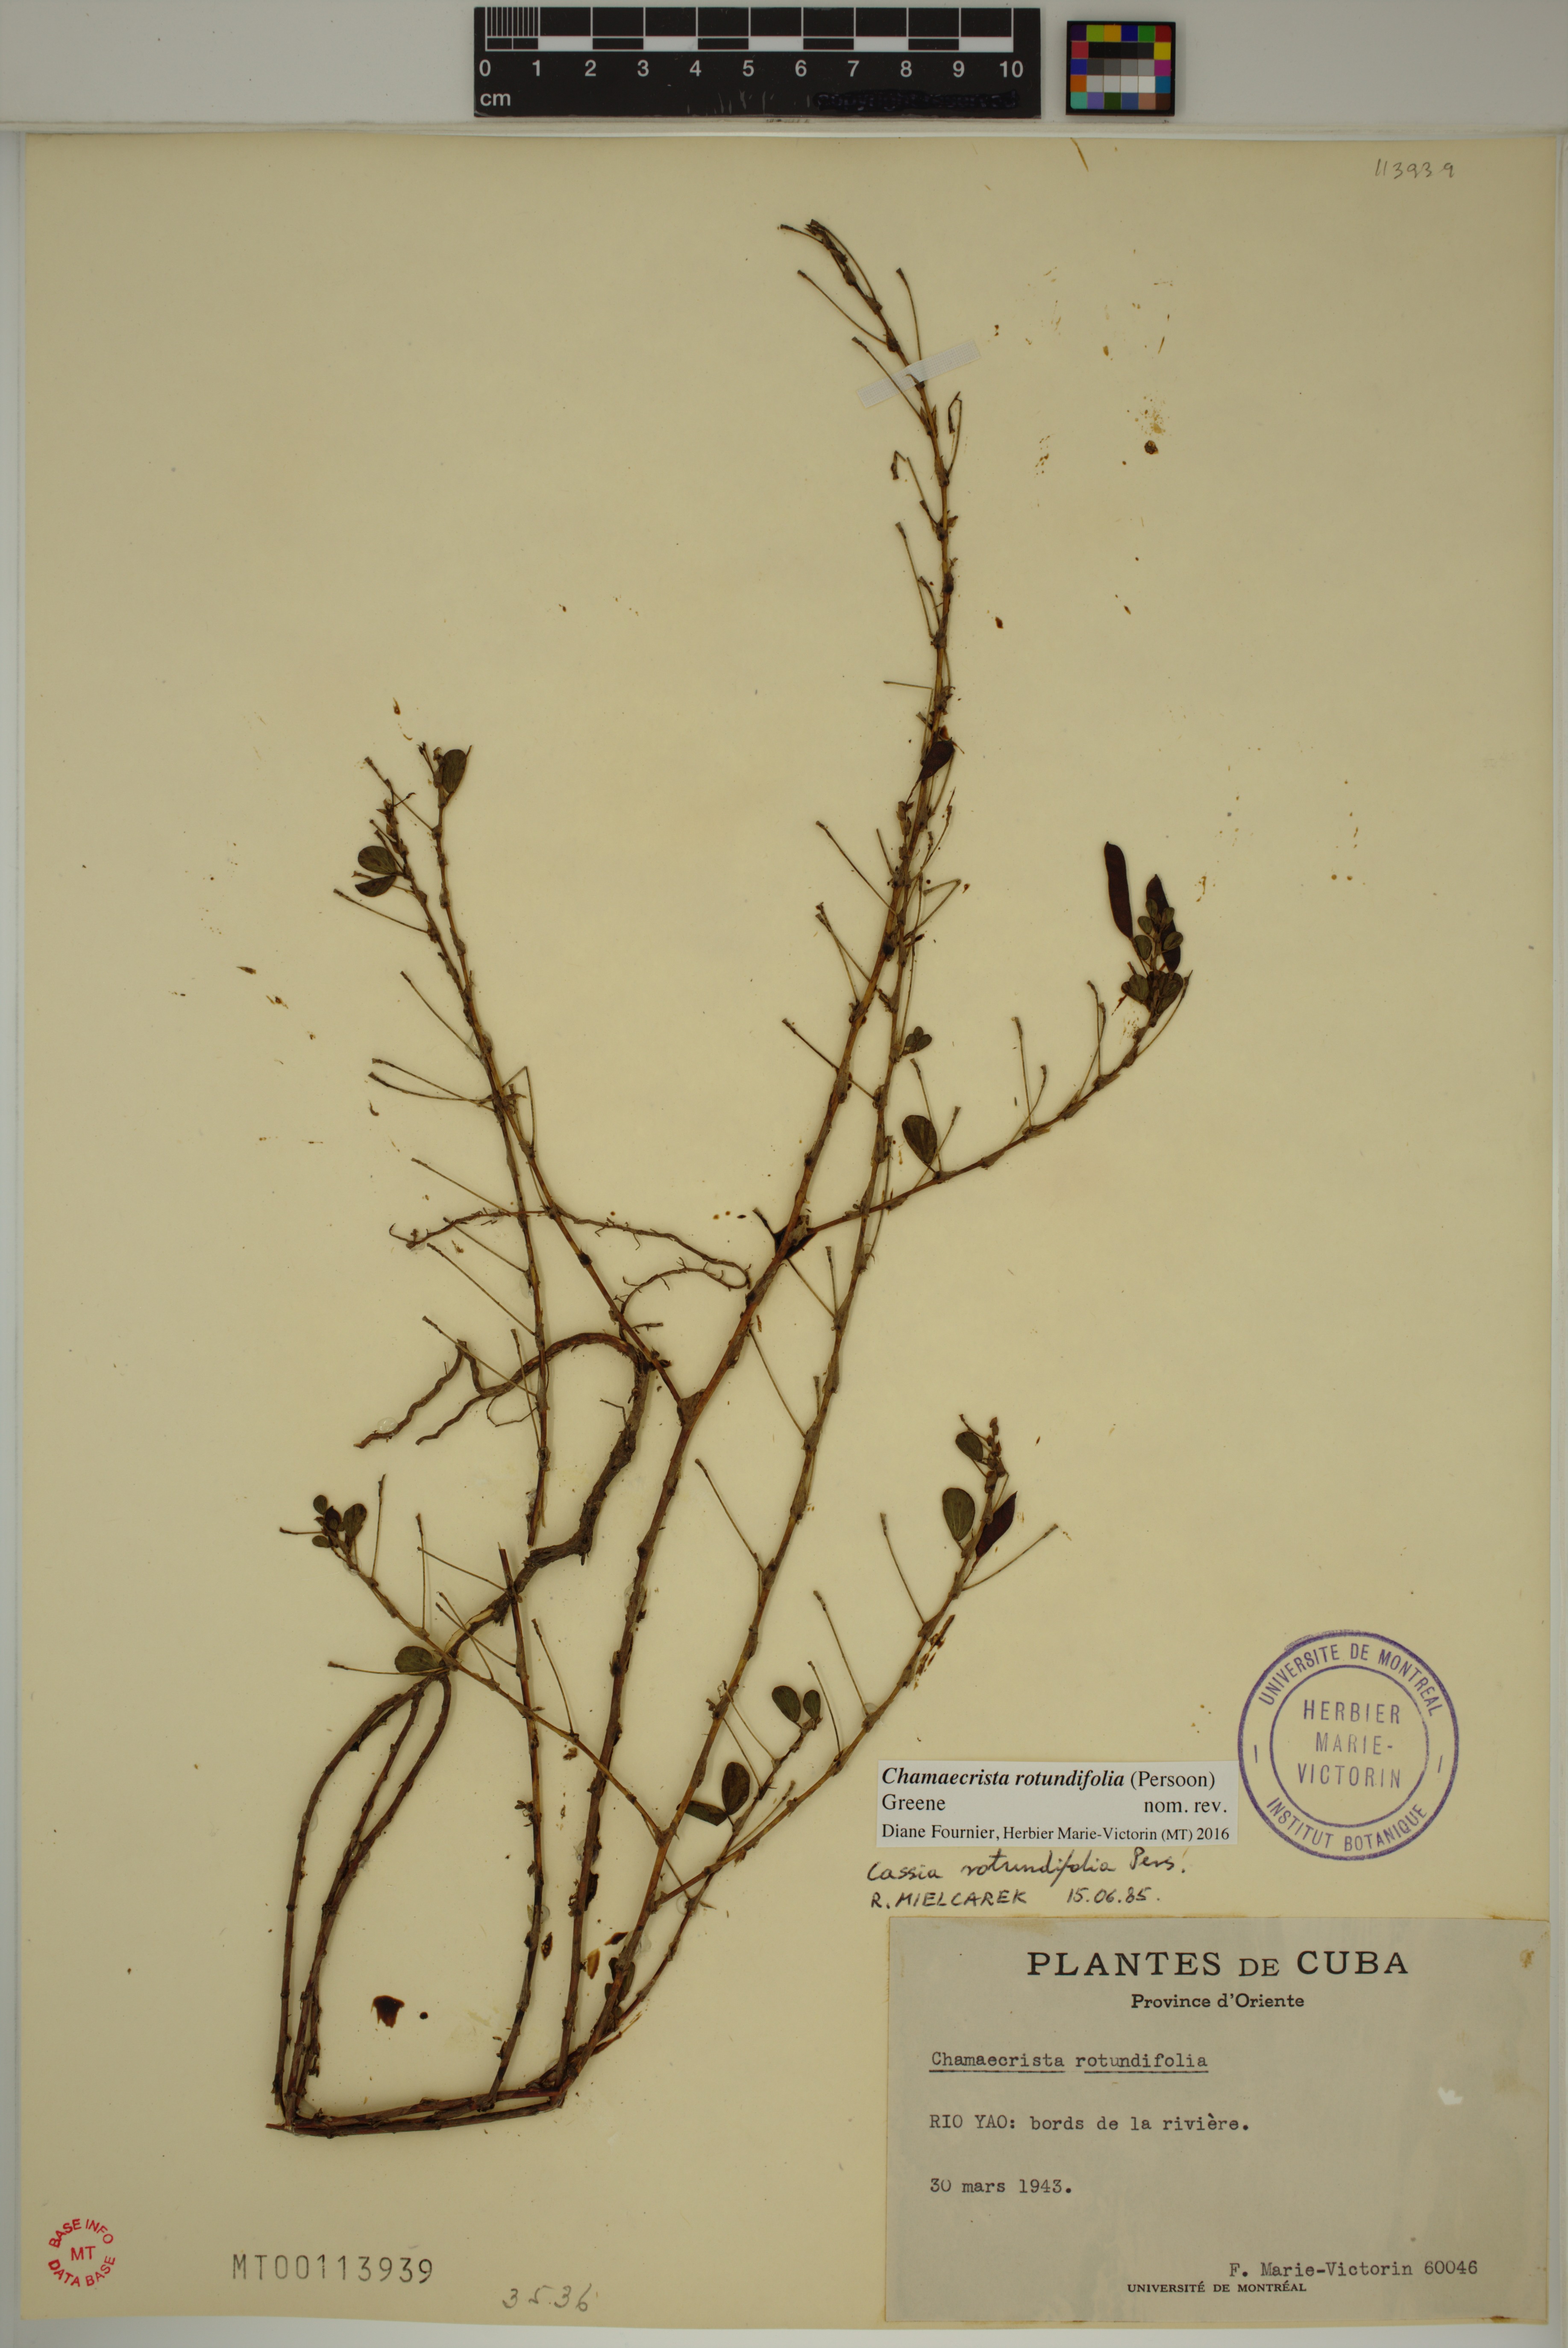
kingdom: Plantae
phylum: Tracheophyta
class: Magnoliopsida
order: Fabales
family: Fabaceae
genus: Chamaecrista
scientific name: Chamaecrista rotundifolia
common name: Round-leaf cassia
